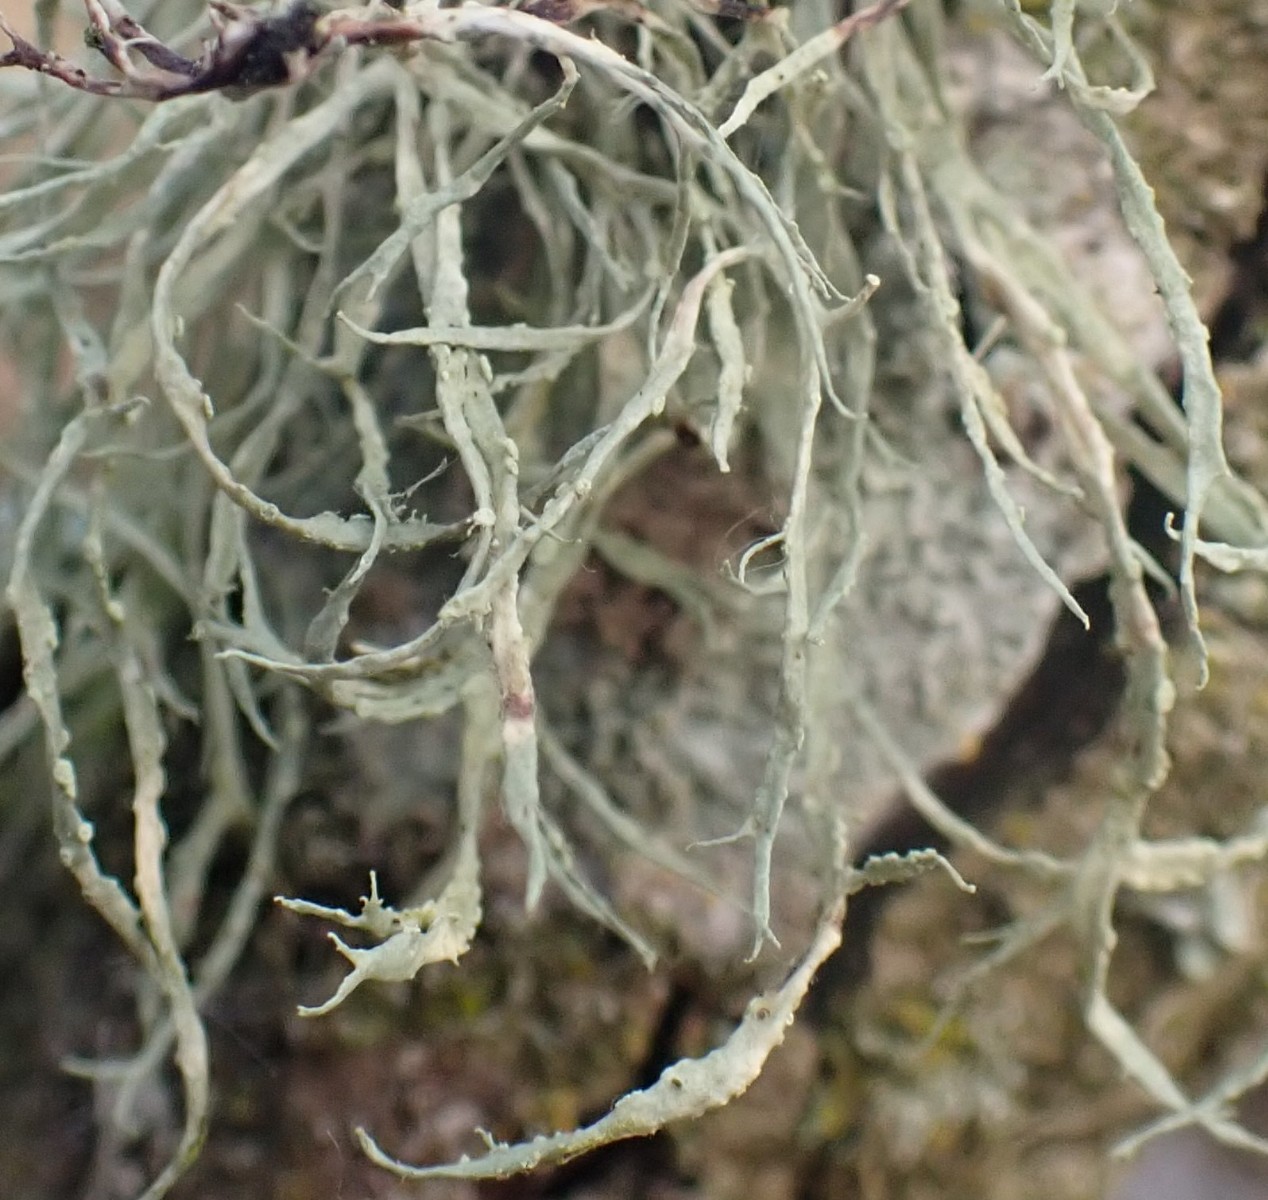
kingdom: Fungi
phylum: Ascomycota
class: Lecanoromycetes
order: Lecanorales
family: Ramalinaceae
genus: Ramalina
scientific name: Ramalina farinacea
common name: melet grenlav
